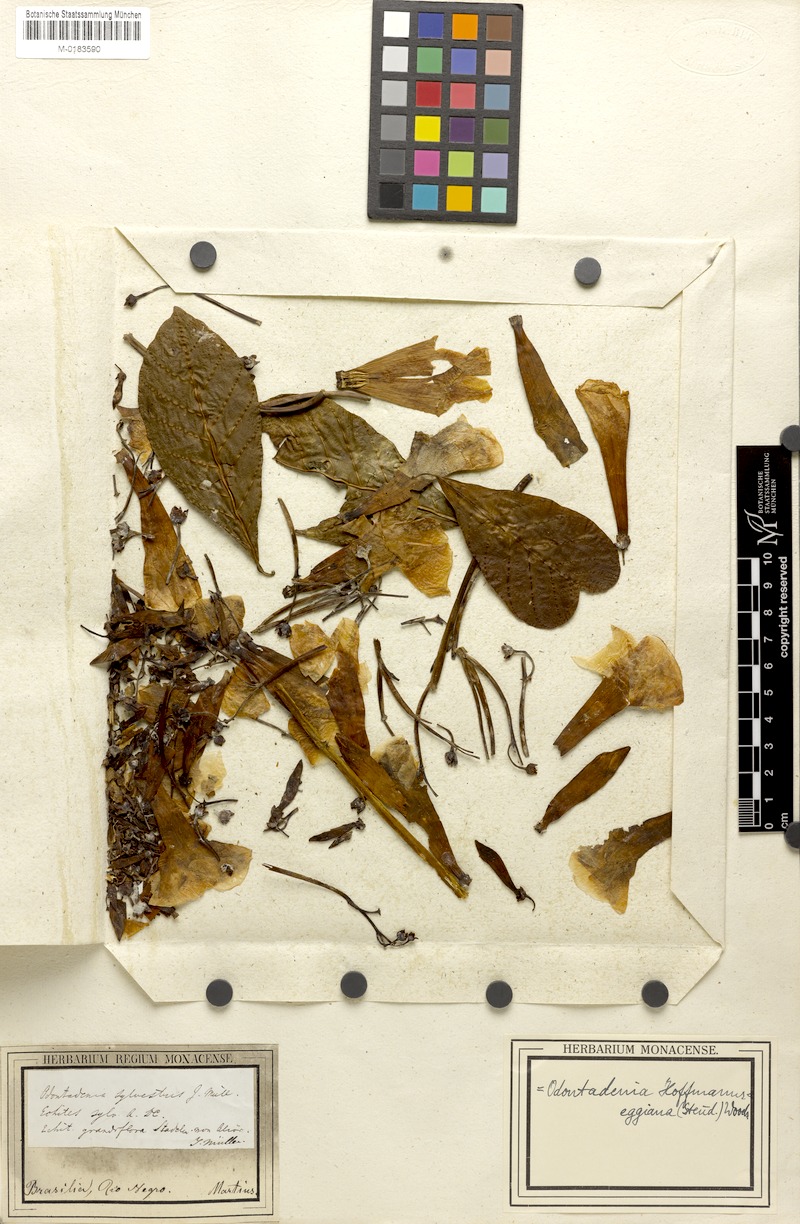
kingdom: Plantae
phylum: Tracheophyta
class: Magnoliopsida
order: Gentianales
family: Apocynaceae
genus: Odontadenia
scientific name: Odontadenia semidigyna
